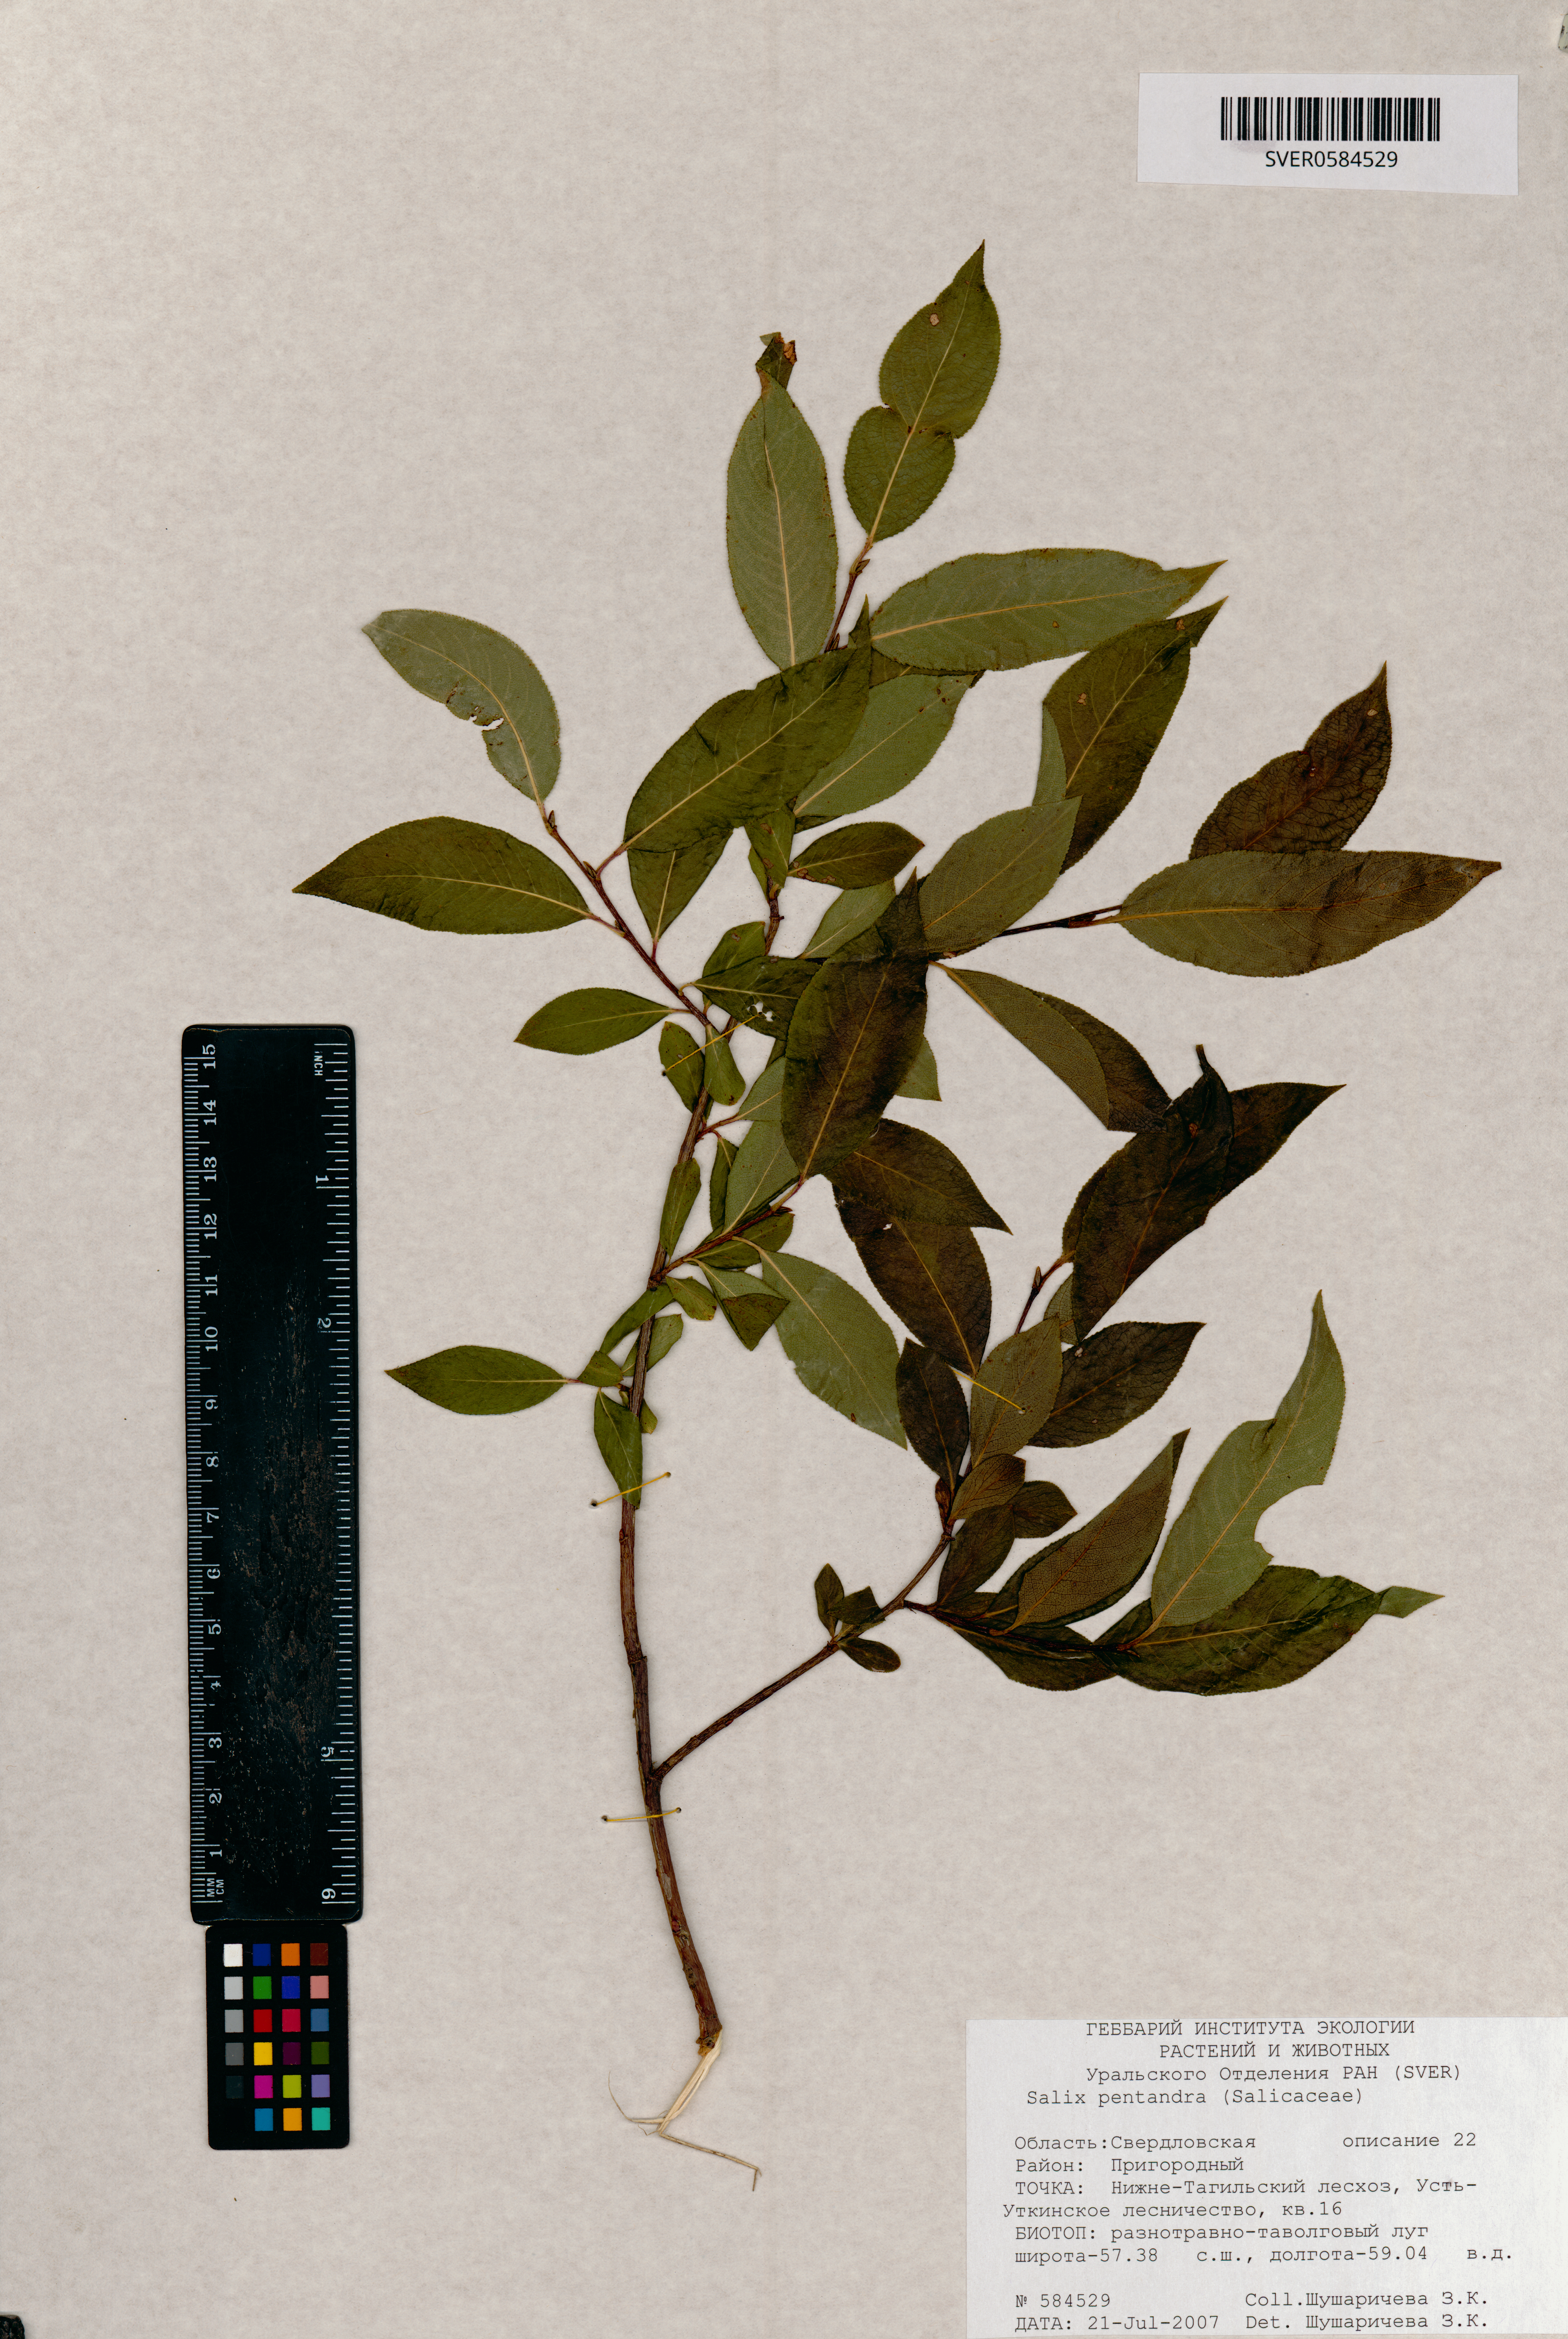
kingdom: Plantae
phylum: Tracheophyta
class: Magnoliopsida
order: Malpighiales
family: Salicaceae
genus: Salix
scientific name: Salix pentandra
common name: Bay willow
